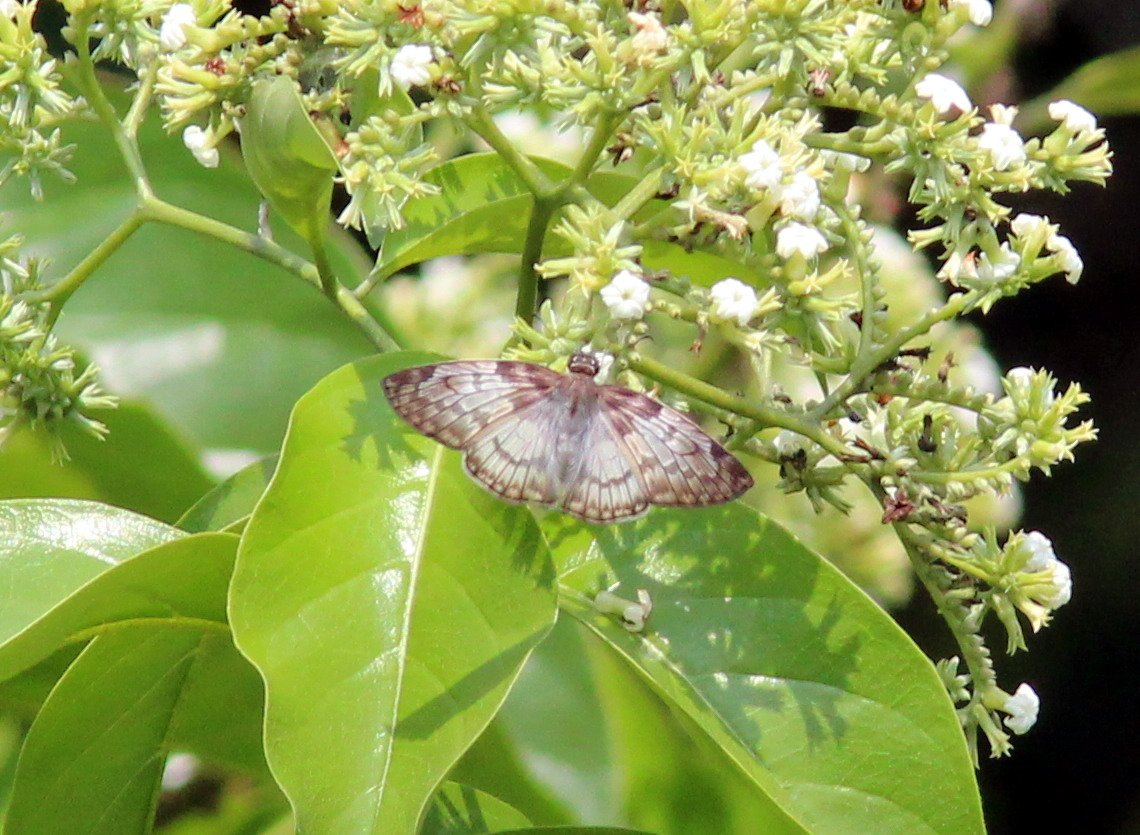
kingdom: Animalia
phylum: Arthropoda
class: Insecta
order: Lepidoptera
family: Hesperiidae
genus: Mylon
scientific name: Mylon jason
